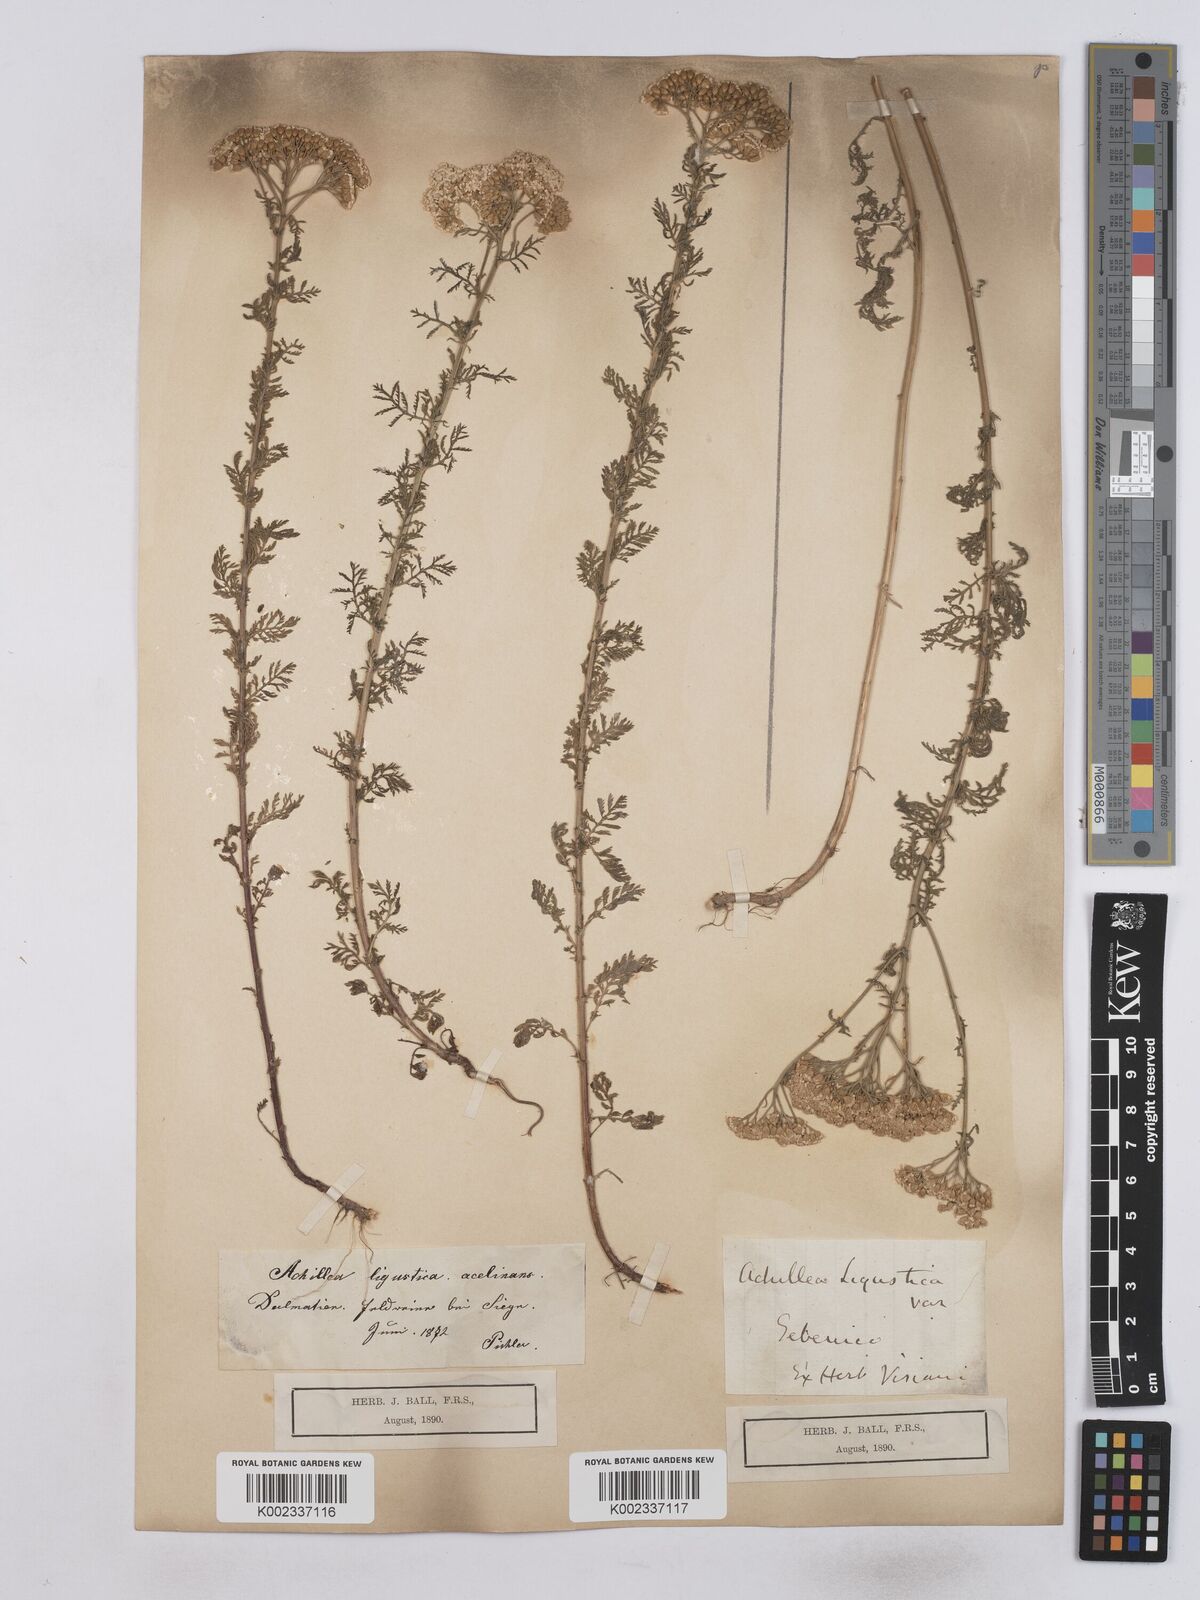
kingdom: Plantae
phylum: Tracheophyta
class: Magnoliopsida
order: Asterales
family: Asteraceae
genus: Achillea
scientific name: Achillea ligustica
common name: Southern yarrow
